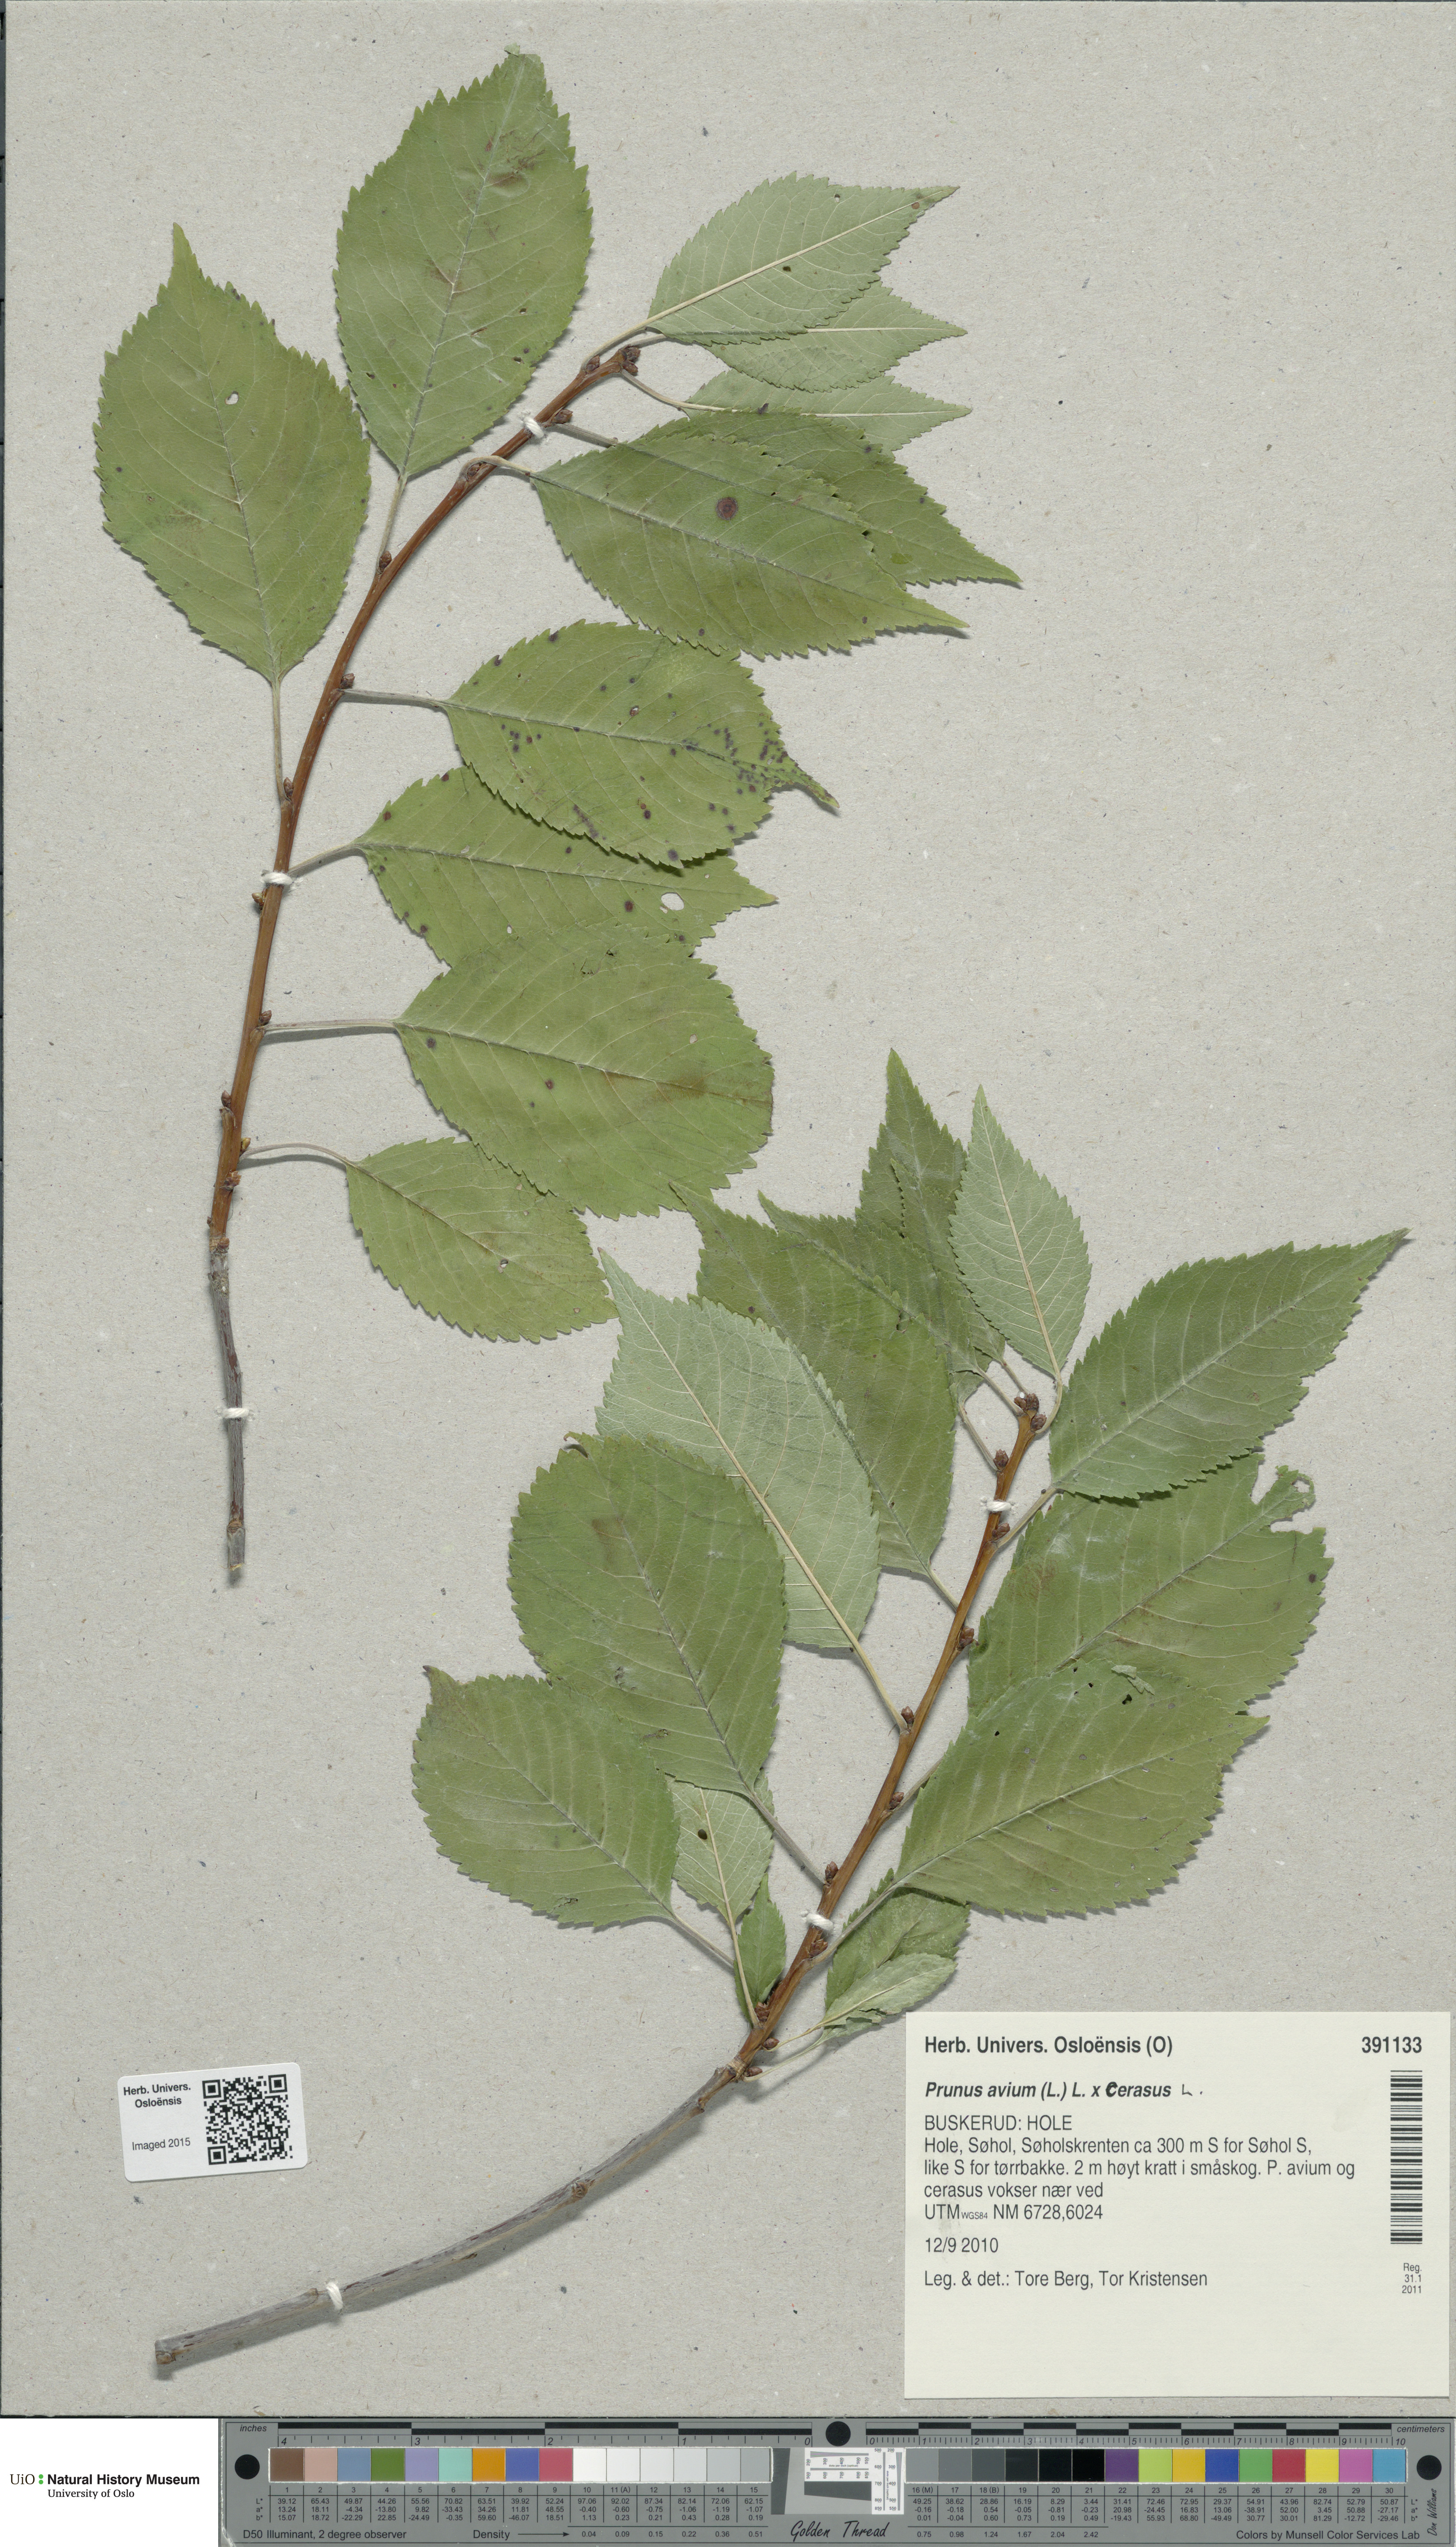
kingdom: Plantae
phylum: Tracheophyta
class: Magnoliopsida
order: Rosales
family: Rosaceae
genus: Prunus
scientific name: Prunus
